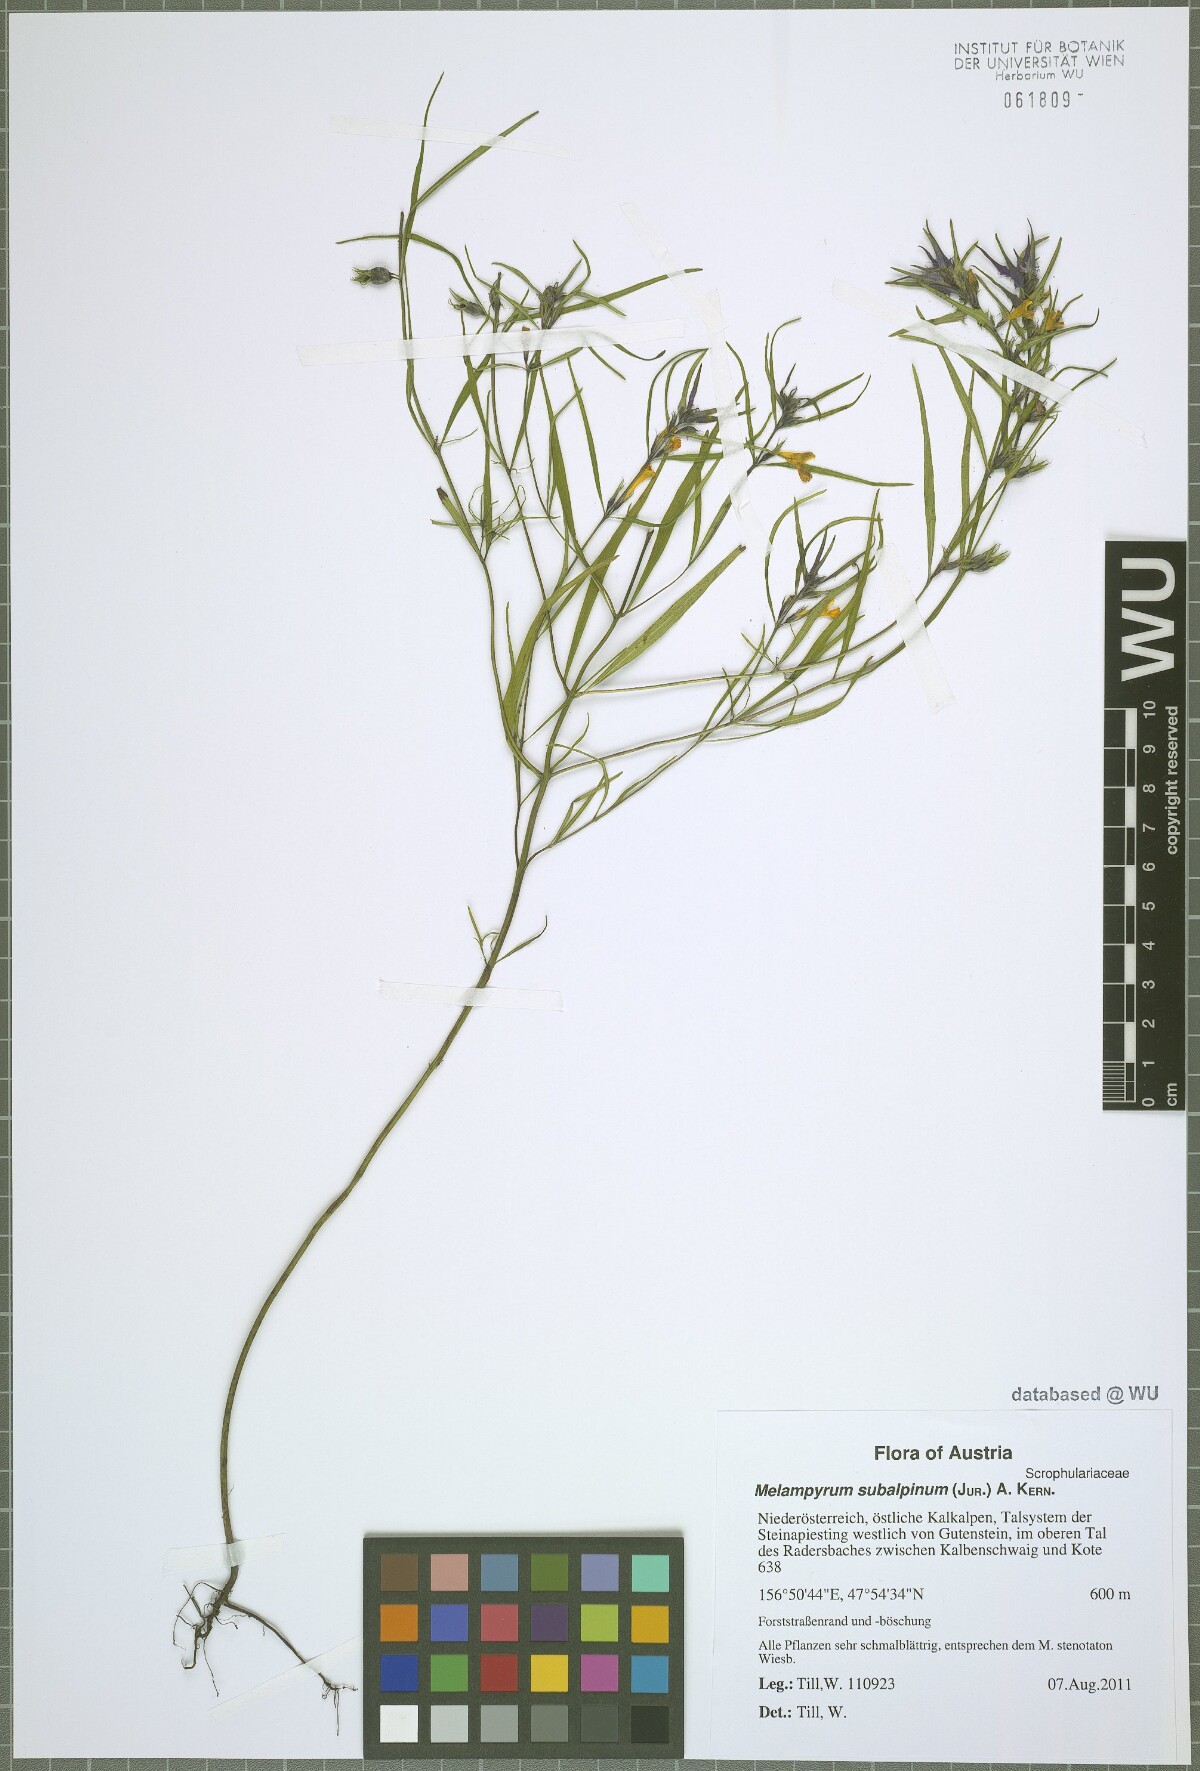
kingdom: Plantae
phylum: Tracheophyta
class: Magnoliopsida
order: Lamiales
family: Orobanchaceae
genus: Melampyrum
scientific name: Melampyrum subalpinum
